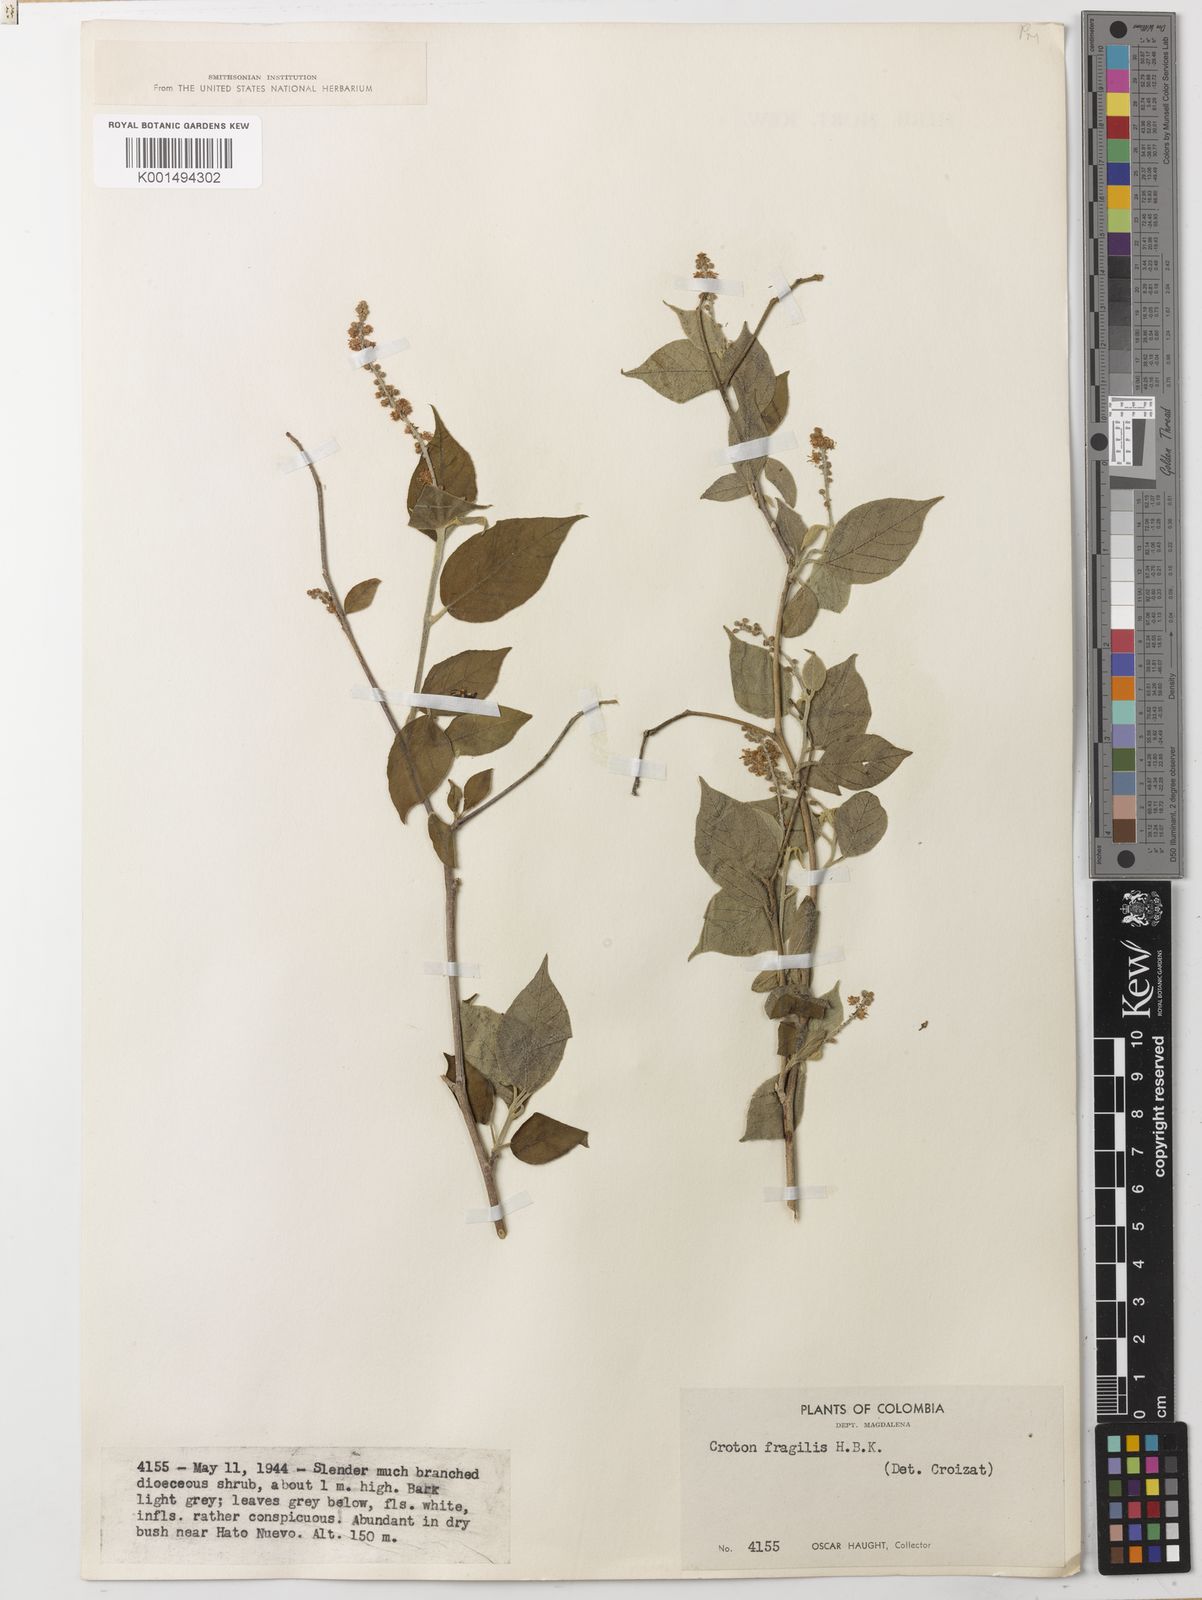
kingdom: Plantae
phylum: Tracheophyta
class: Magnoliopsida
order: Malpighiales
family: Euphorbiaceae
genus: Croton
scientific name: Croton fragilis
